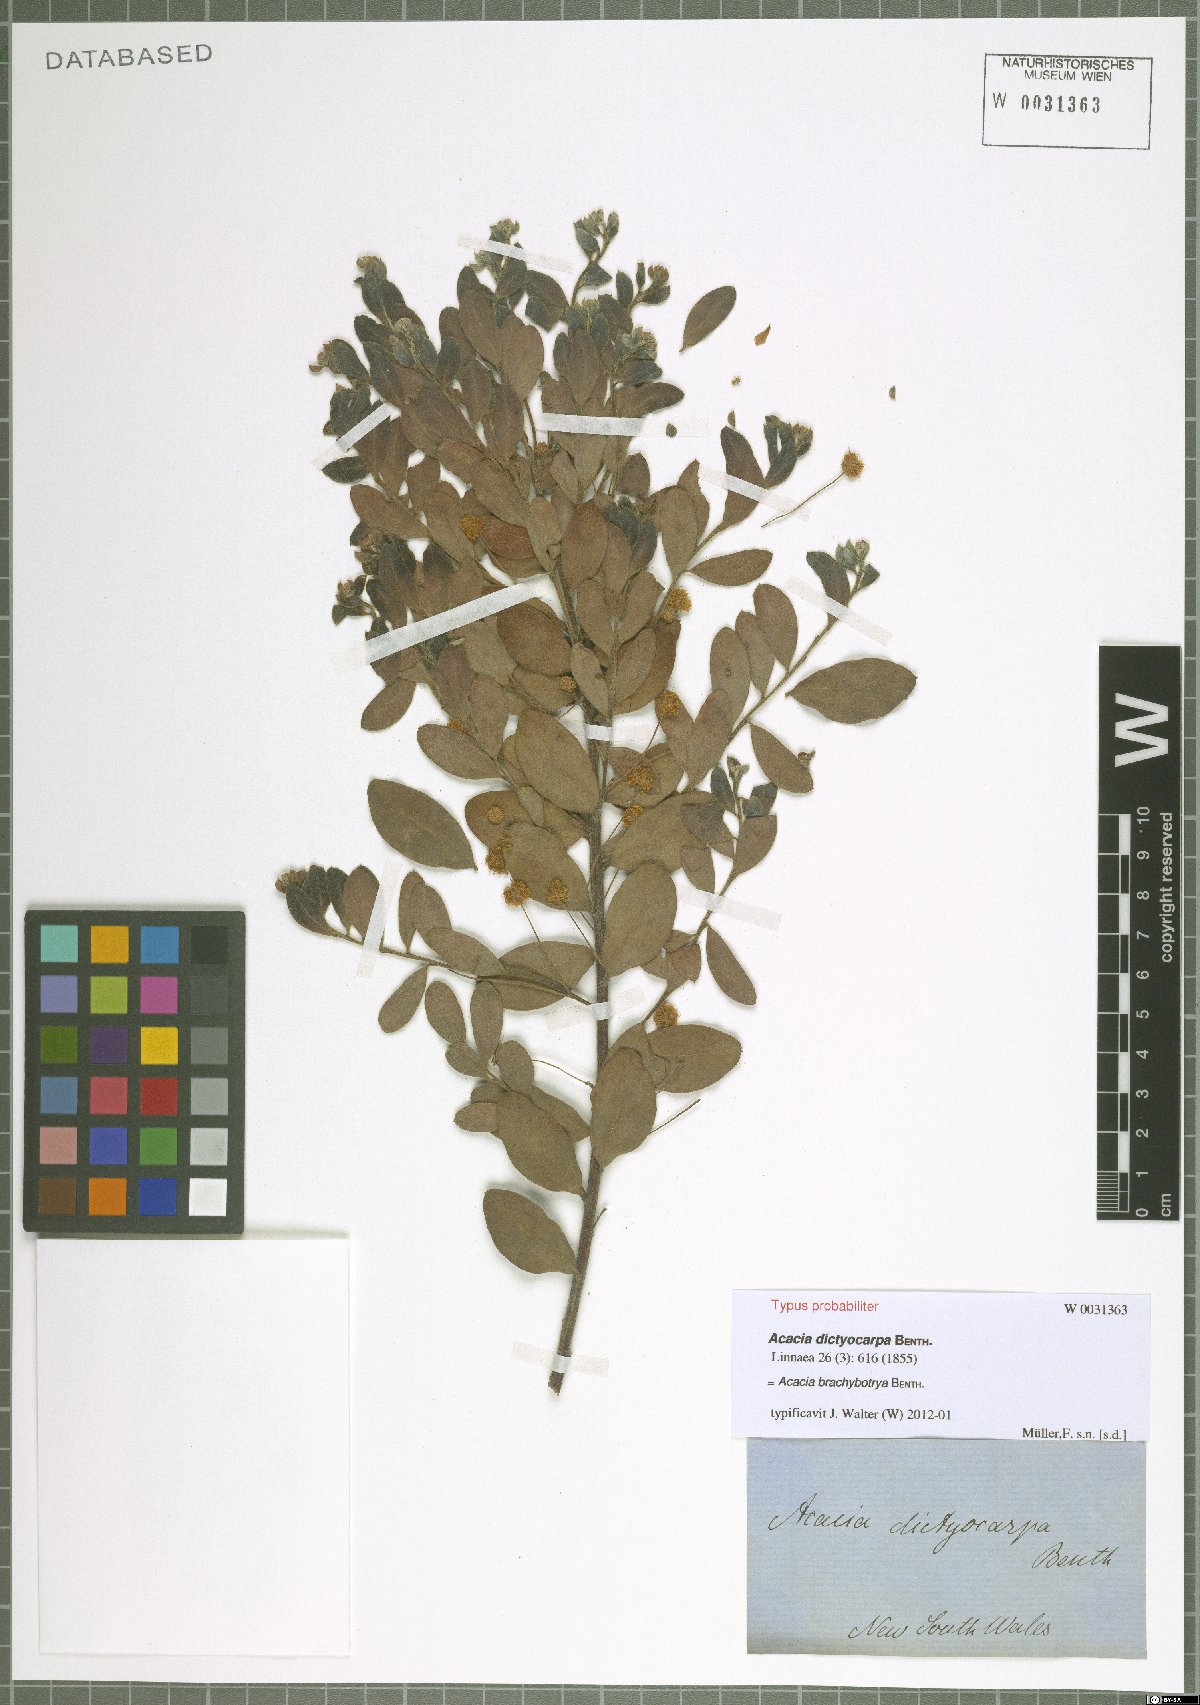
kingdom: Plantae
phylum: Tracheophyta
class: Magnoliopsida
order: Fabales
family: Fabaceae
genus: Acacia
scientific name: Acacia brachybotrya
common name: Grey mulga
